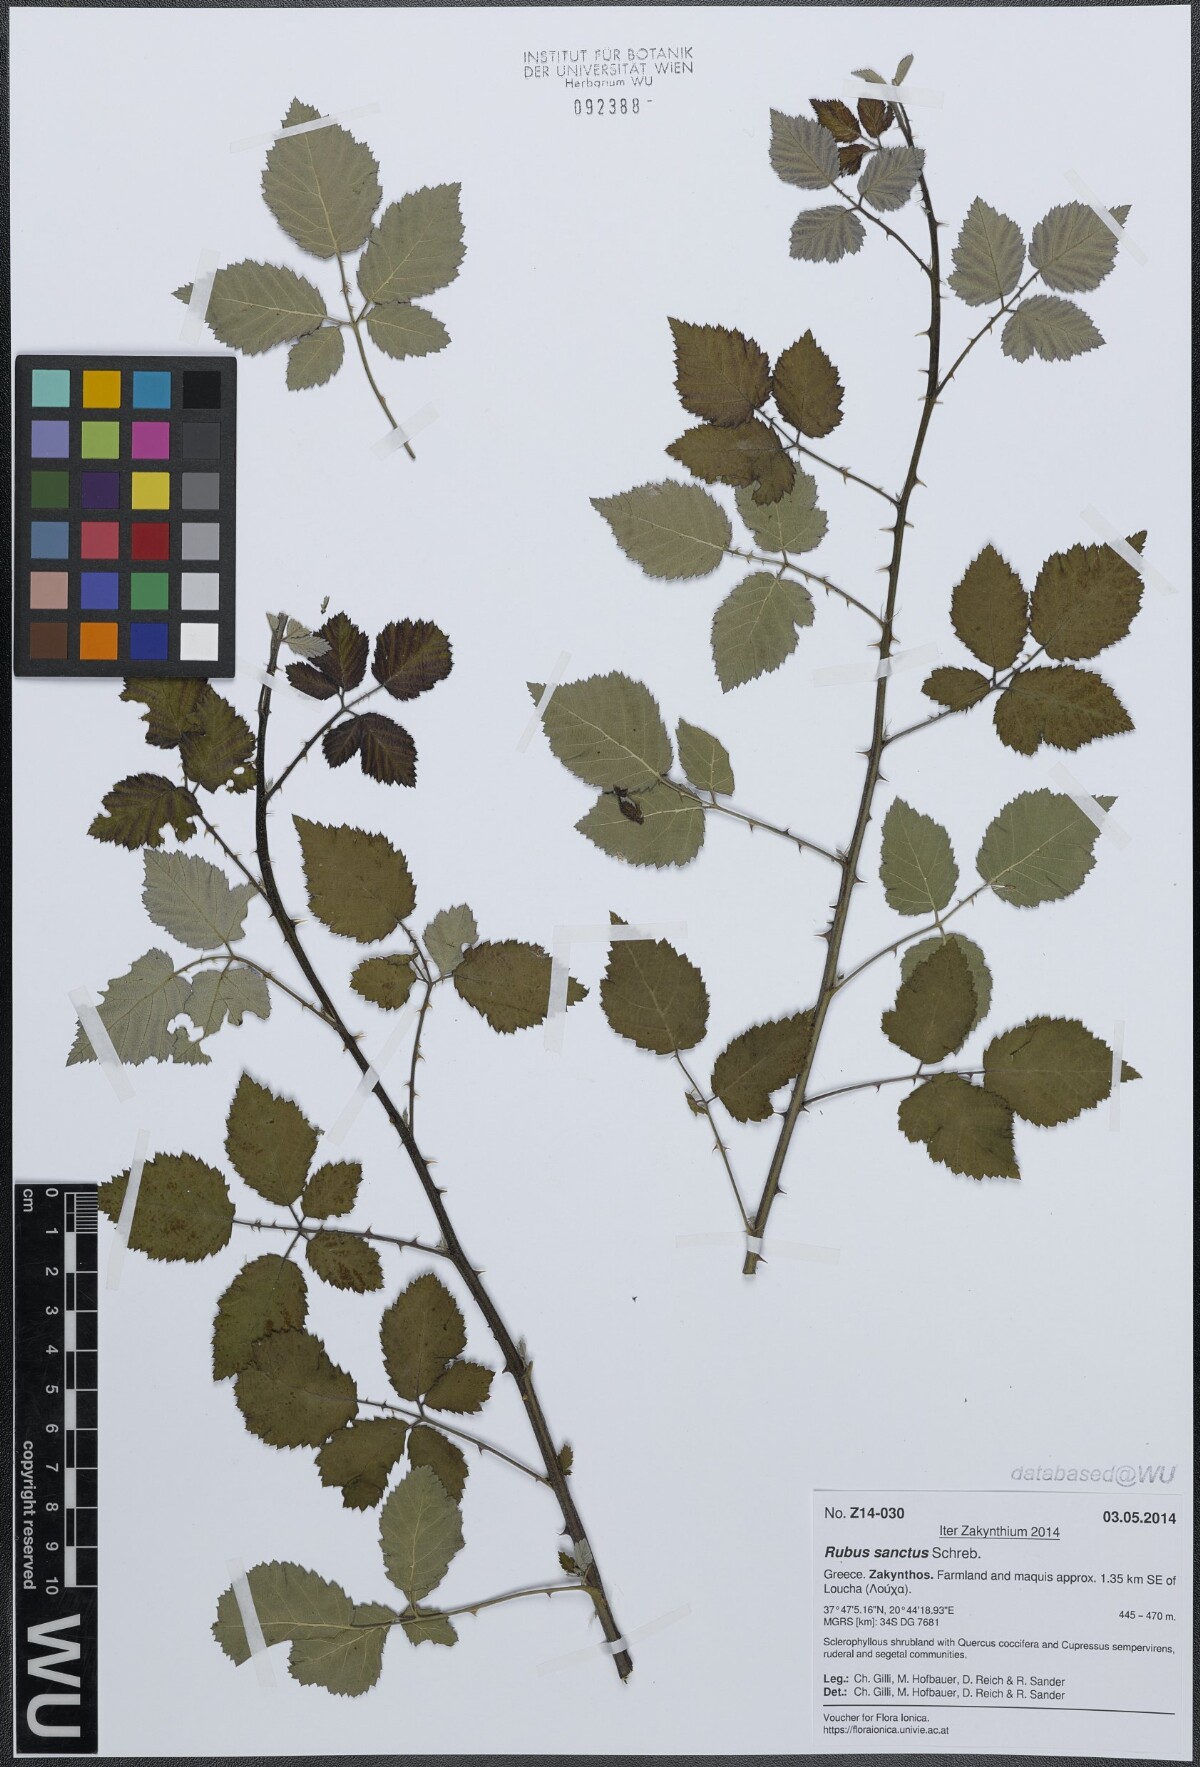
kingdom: Plantae
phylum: Tracheophyta
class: Magnoliopsida
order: Rosales
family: Rosaceae
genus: Rubus
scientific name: Rubus sanctus
